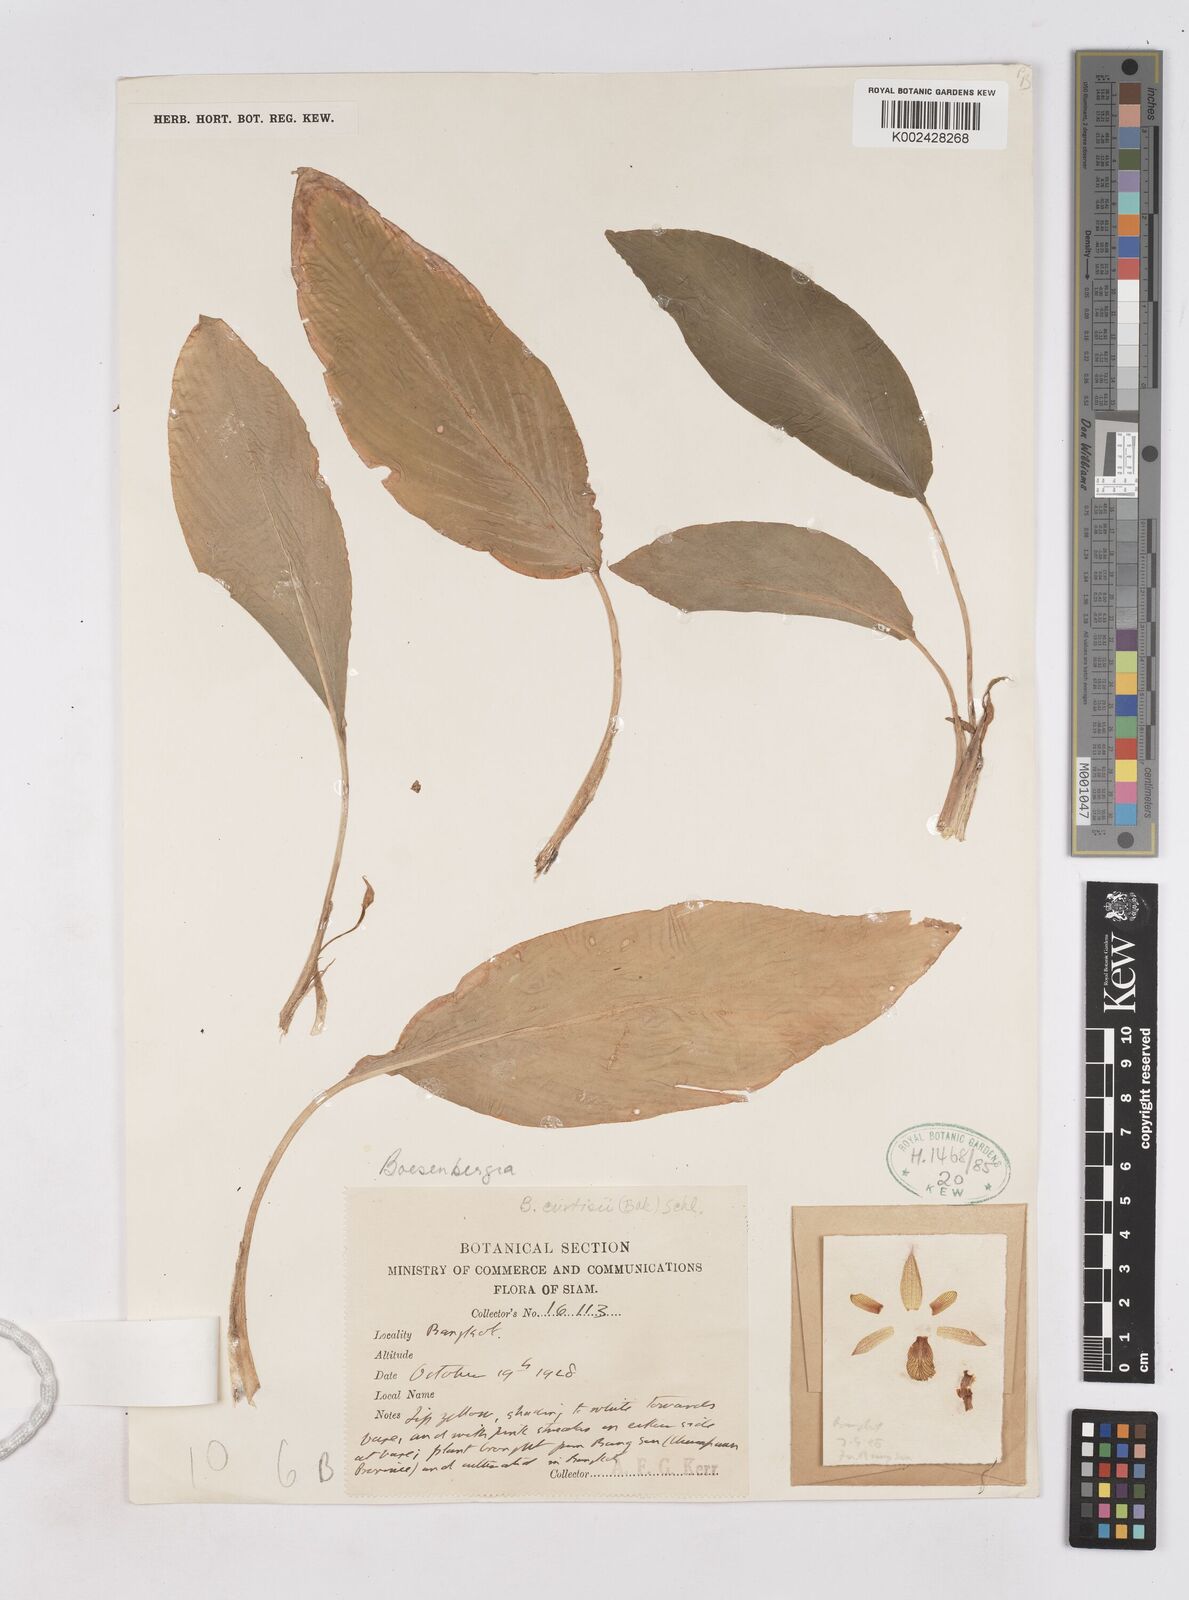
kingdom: Plantae
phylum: Tracheophyta
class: Liliopsida
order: Zingiberales
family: Zingiberaceae
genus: Boesenbergia
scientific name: Boesenbergia curtisii
